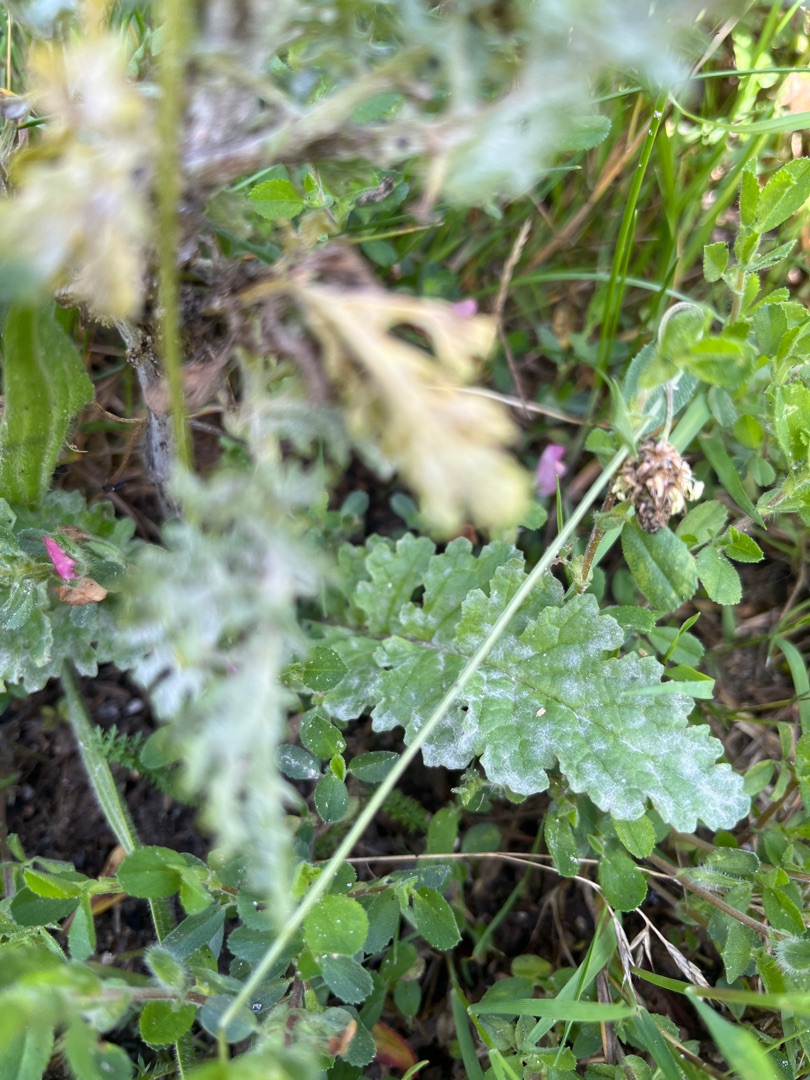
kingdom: Plantae
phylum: Tracheophyta
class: Magnoliopsida
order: Asterales
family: Asteraceae
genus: Jacobaea
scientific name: Jacobaea vulgaris
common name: Eng-brandbæger
